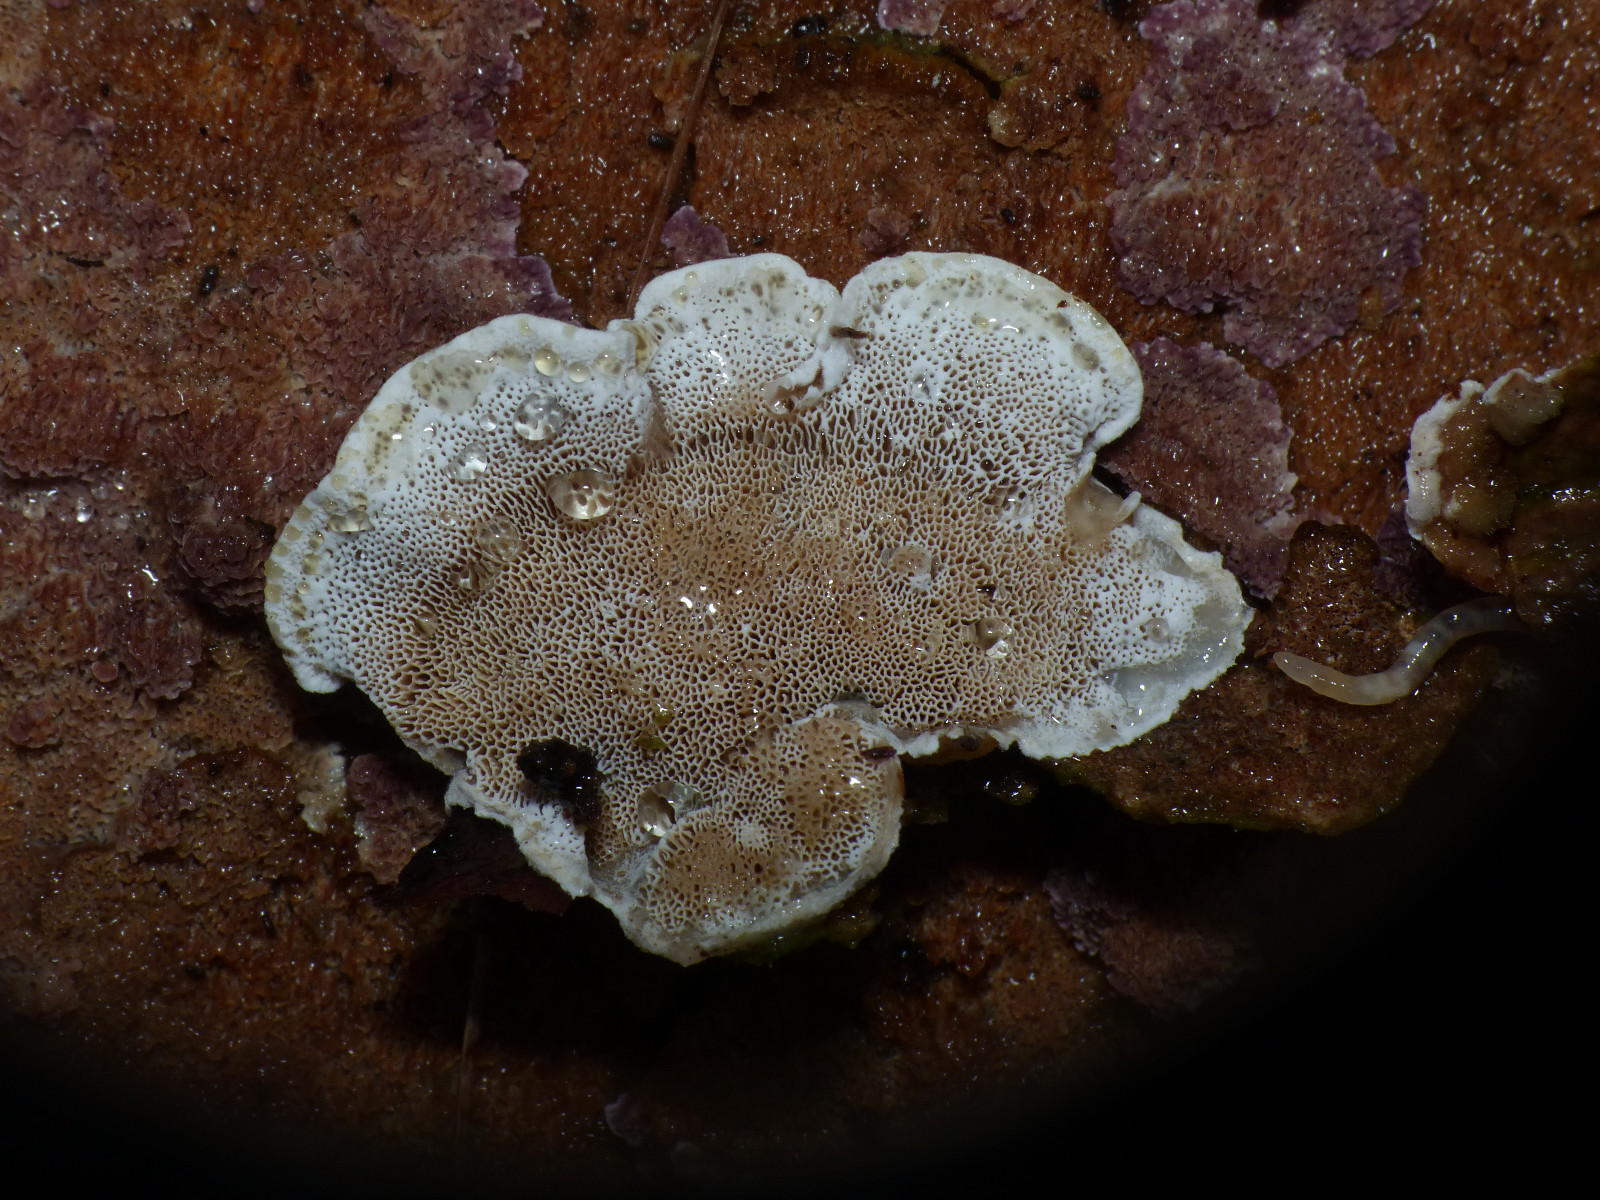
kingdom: Fungi
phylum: Basidiomycota
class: Agaricomycetes
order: Polyporales
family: Incrustoporiaceae
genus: Skeletocutis
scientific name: Skeletocutis carneogrisea
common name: rødgrå krystalporesvamp
